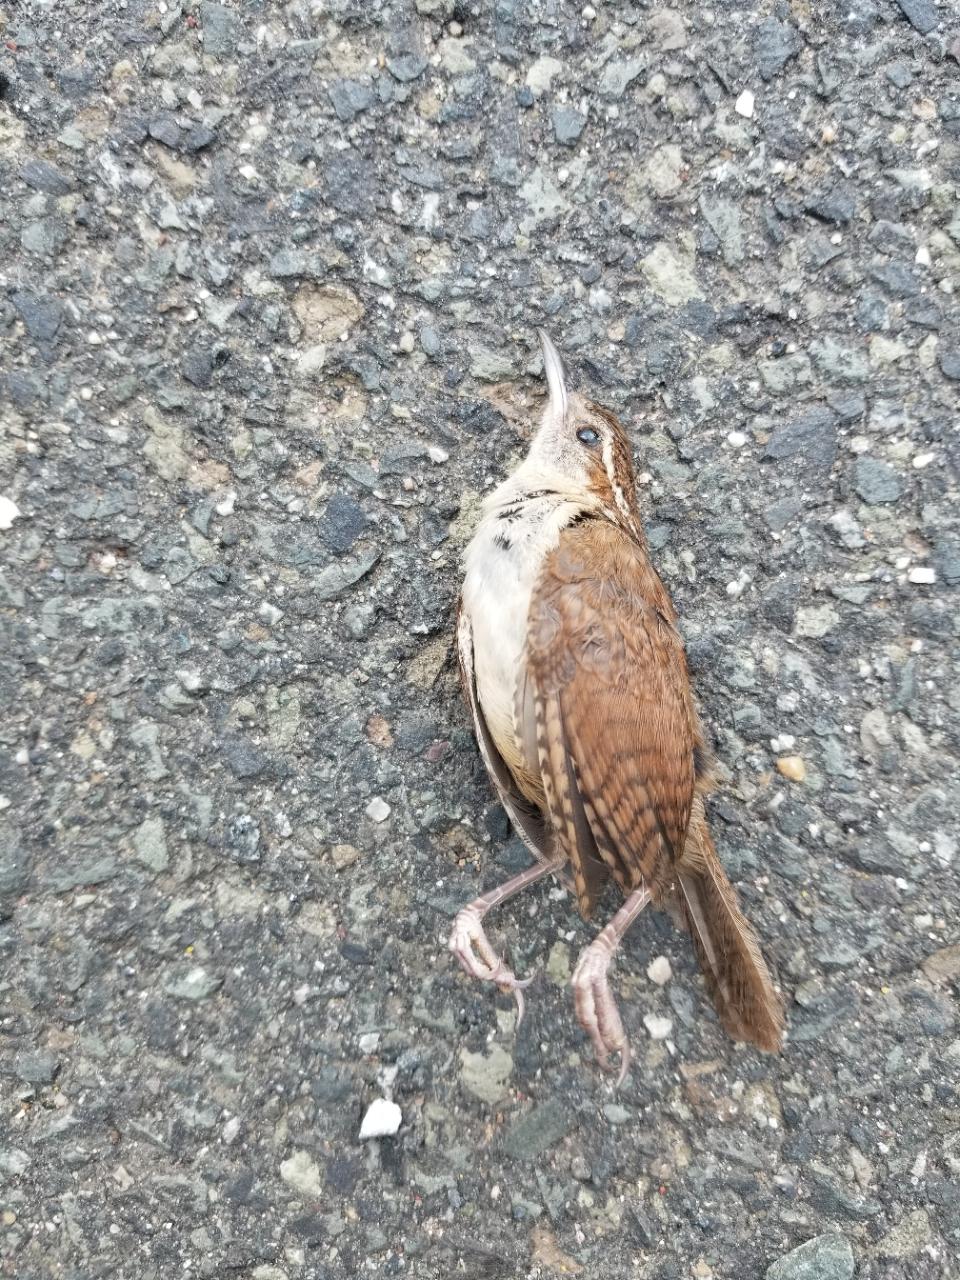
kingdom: Animalia
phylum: Chordata
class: Aves
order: Passeriformes
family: Troglodytidae
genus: Thryothorus
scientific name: Thryothorus ludovicianus
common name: Carolina wren
